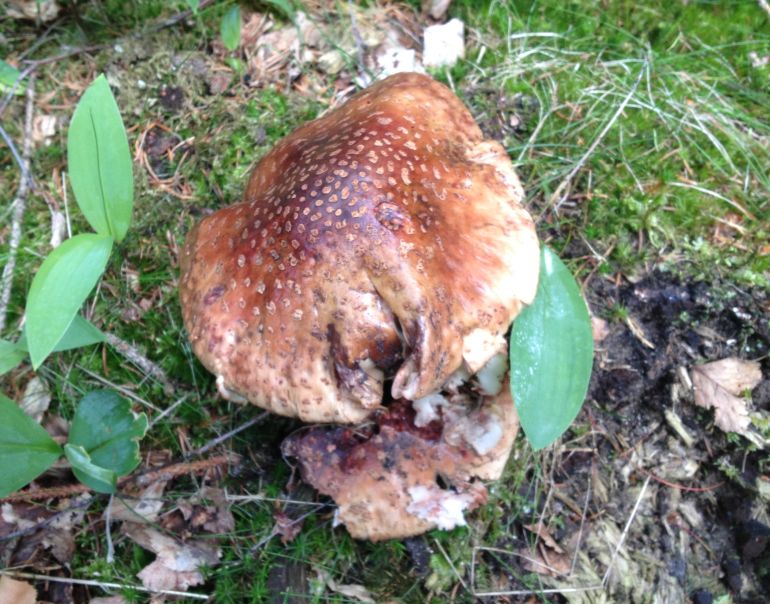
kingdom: Fungi
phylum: Basidiomycota
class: Agaricomycetes
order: Agaricales
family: Amanitaceae
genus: Amanita
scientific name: Amanita rubescens
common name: rødmende fluesvamp
